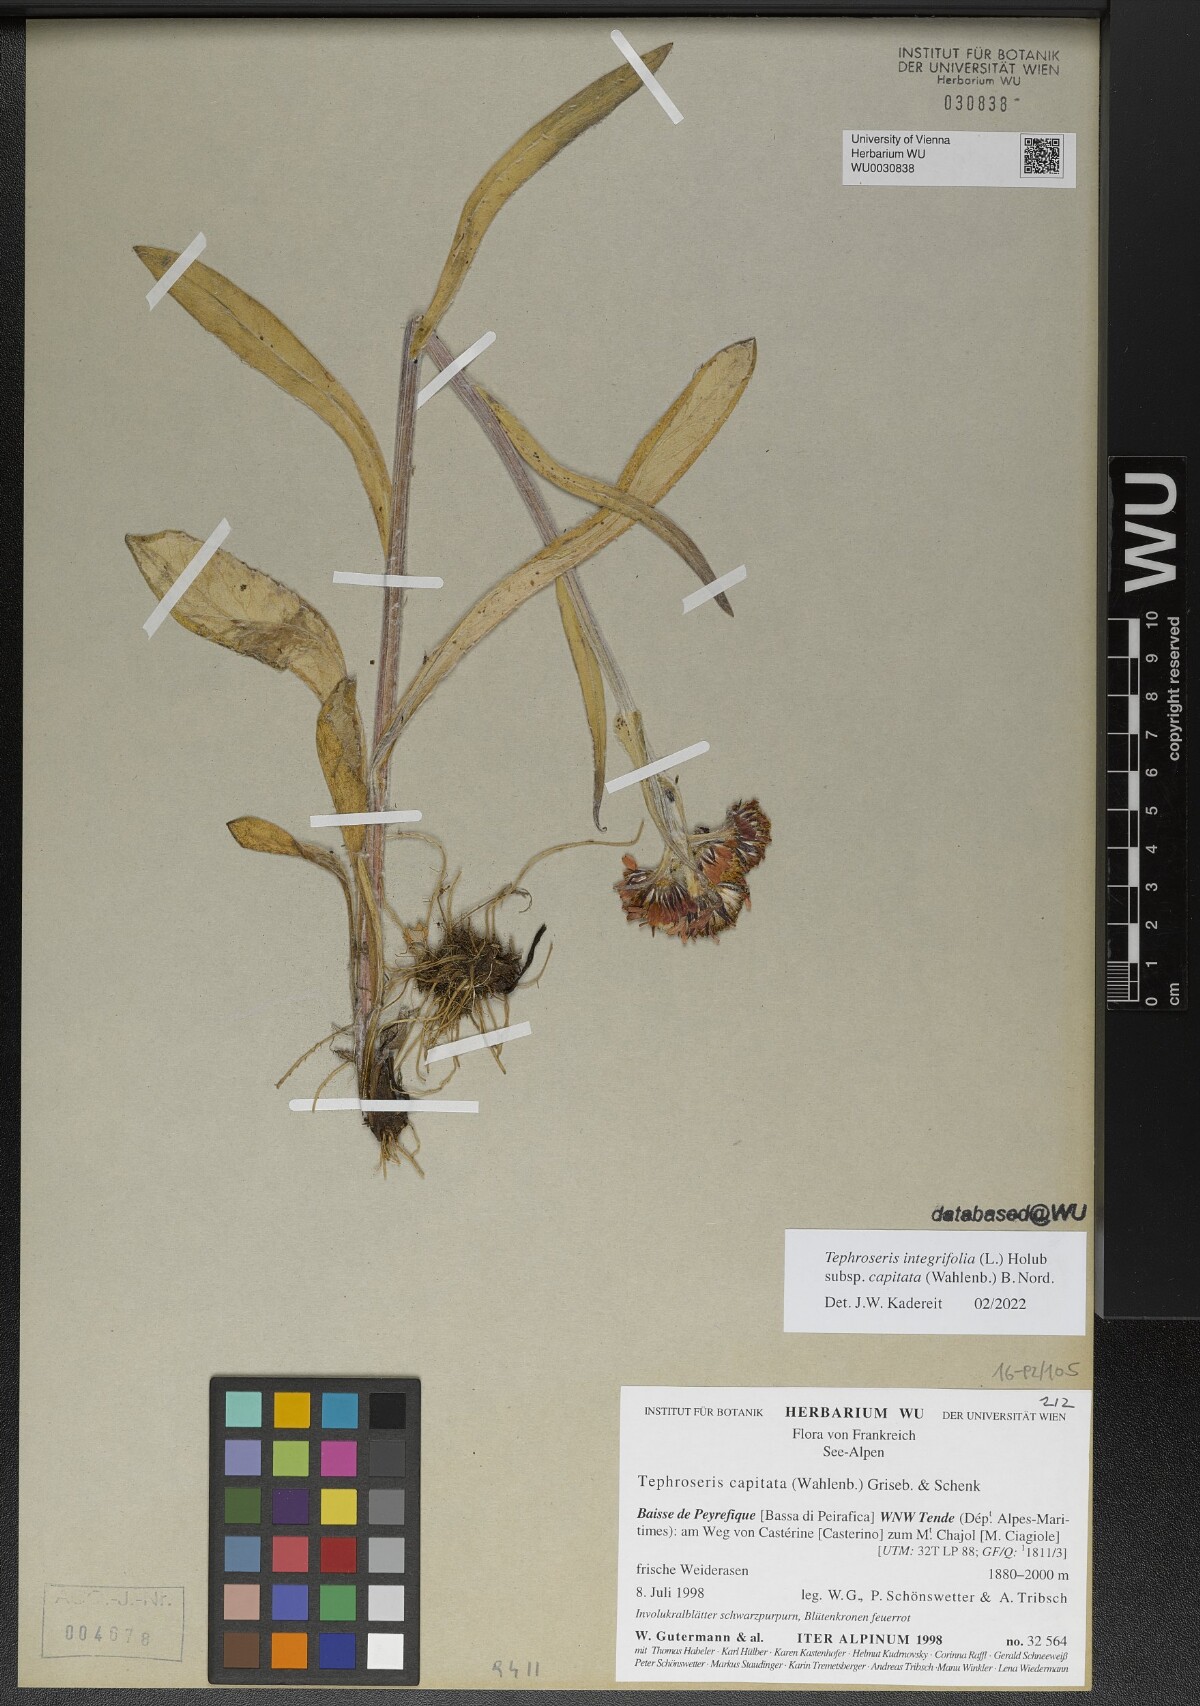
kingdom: Plantae
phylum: Tracheophyta
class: Magnoliopsida
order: Asterales
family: Asteraceae
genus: Tephroseris
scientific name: Tephroseris integrifolia
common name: Field fleawort
